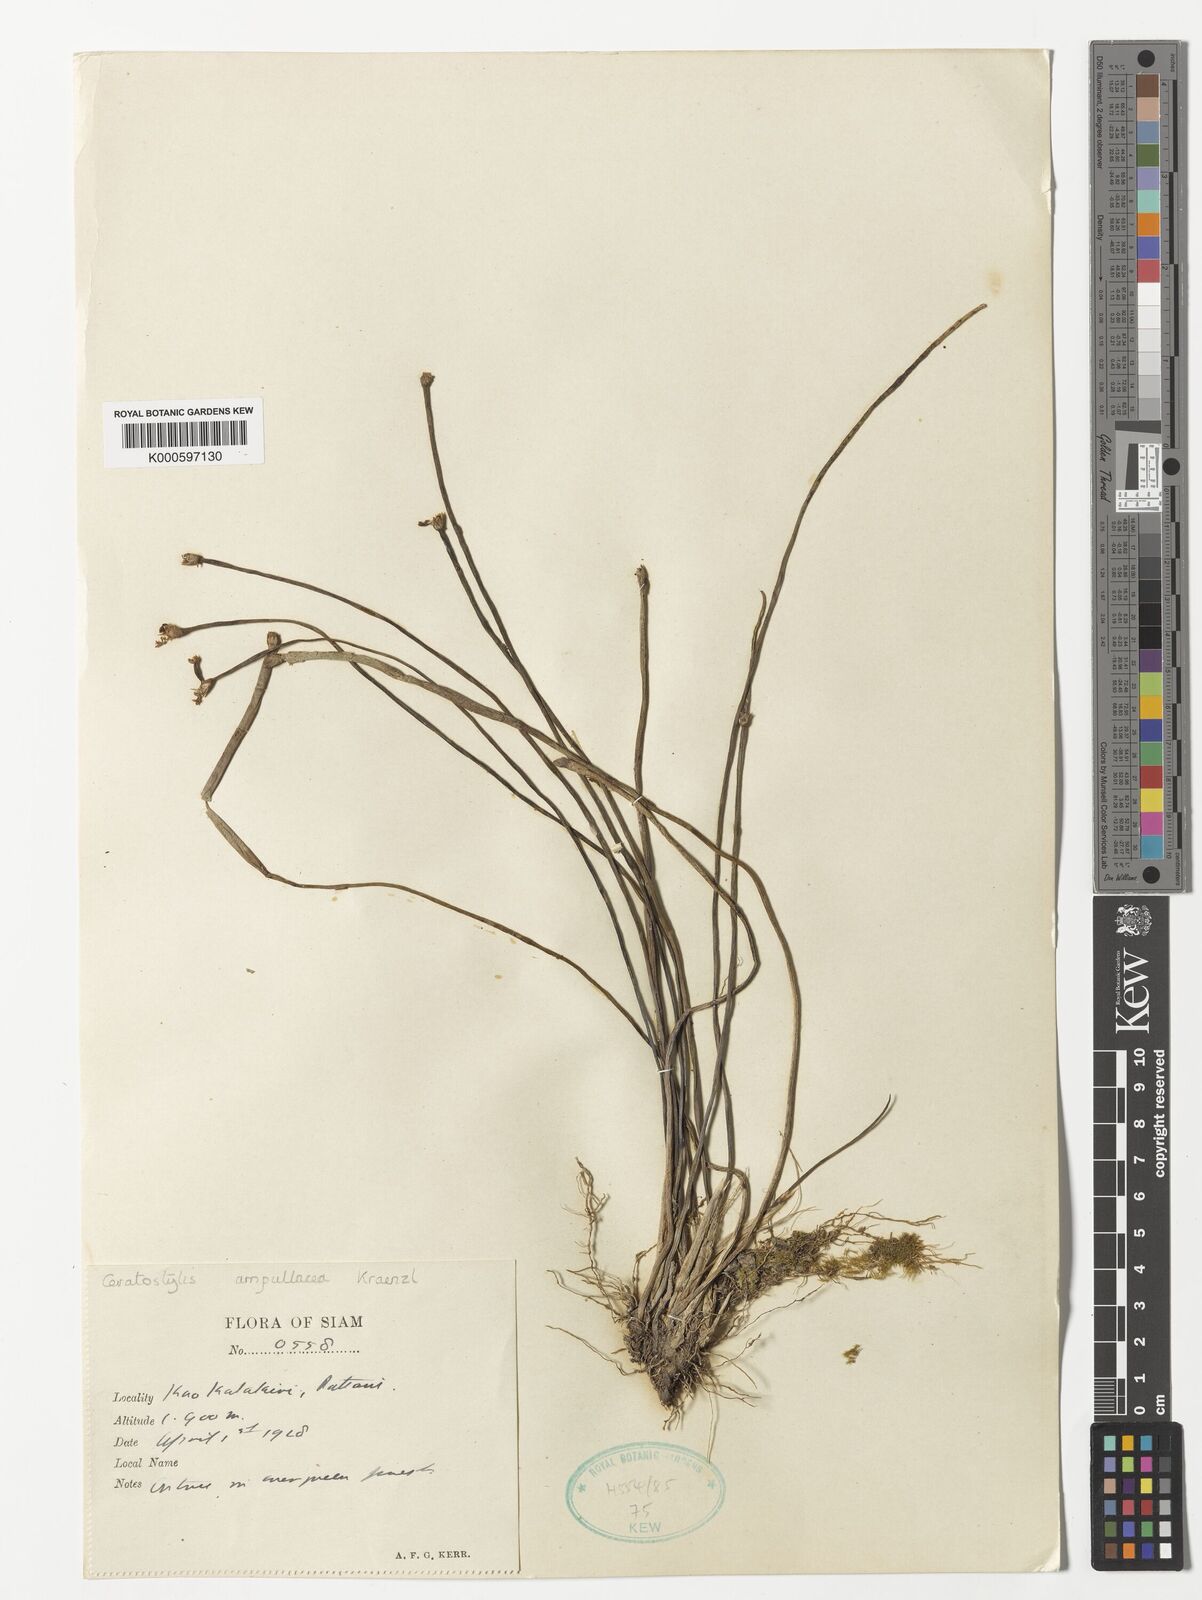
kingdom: Plantae
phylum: Tracheophyta
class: Liliopsida
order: Asparagales
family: Orchidaceae
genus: Ceratostylis
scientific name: Ceratostylis ampullacea
